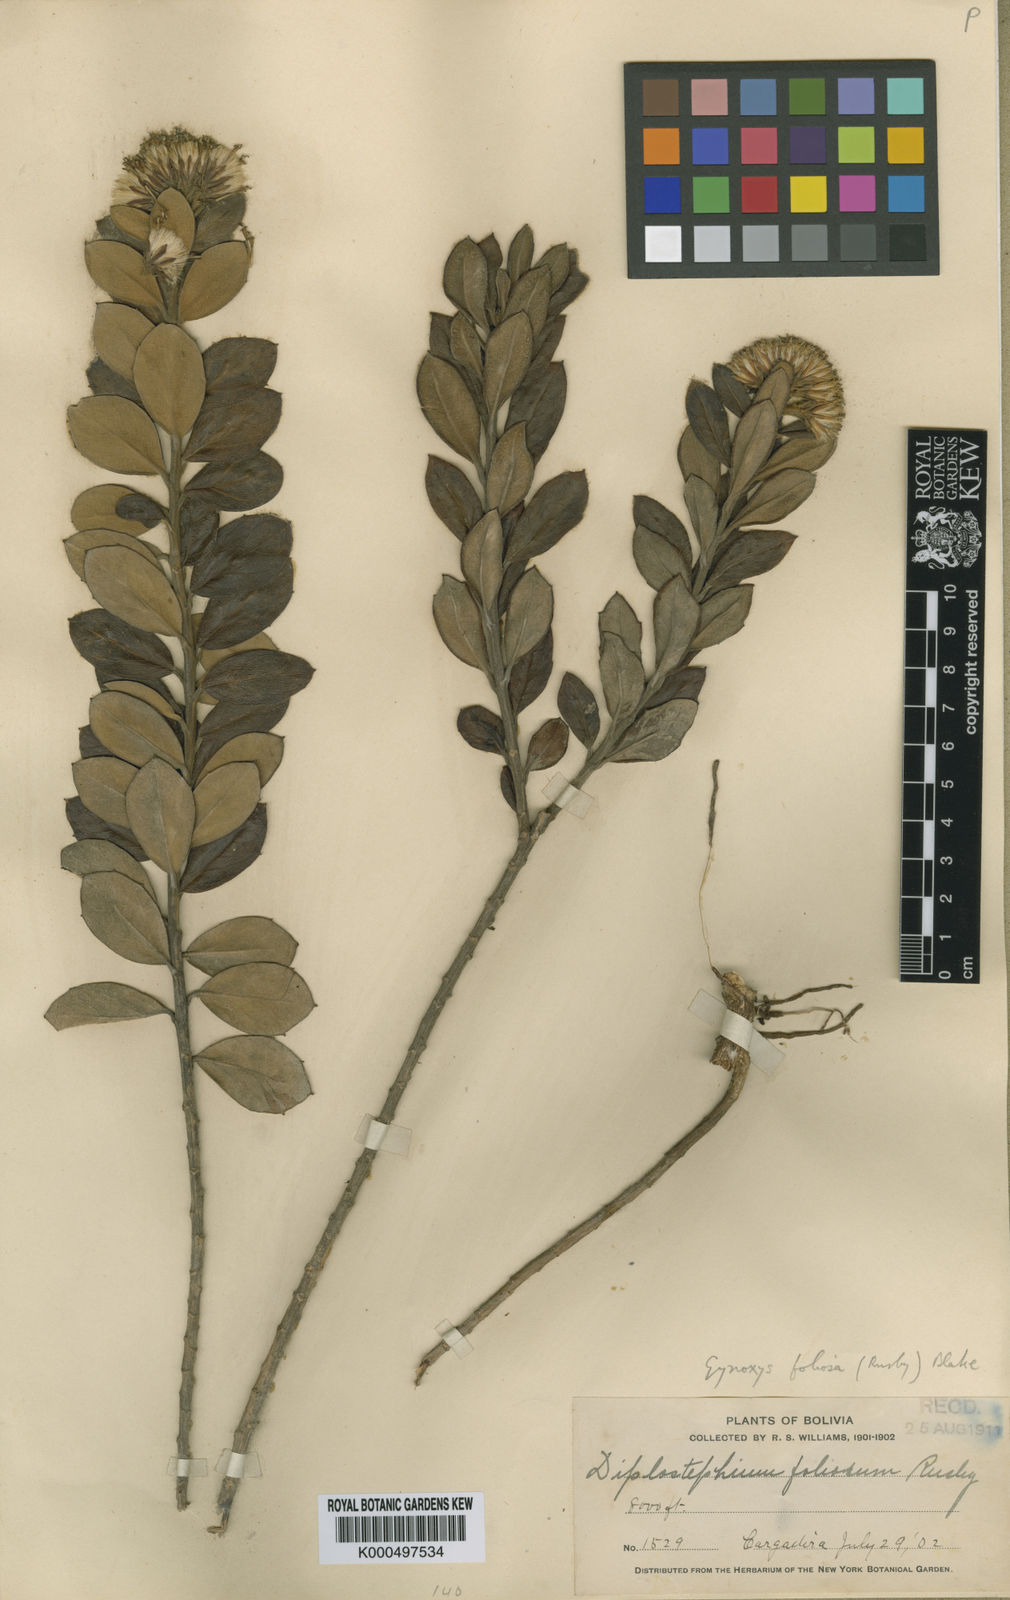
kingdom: Plantae
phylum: Tracheophyta
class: Magnoliopsida
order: Asterales
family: Asteraceae
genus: Gynoxys
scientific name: Gynoxys foliosa
